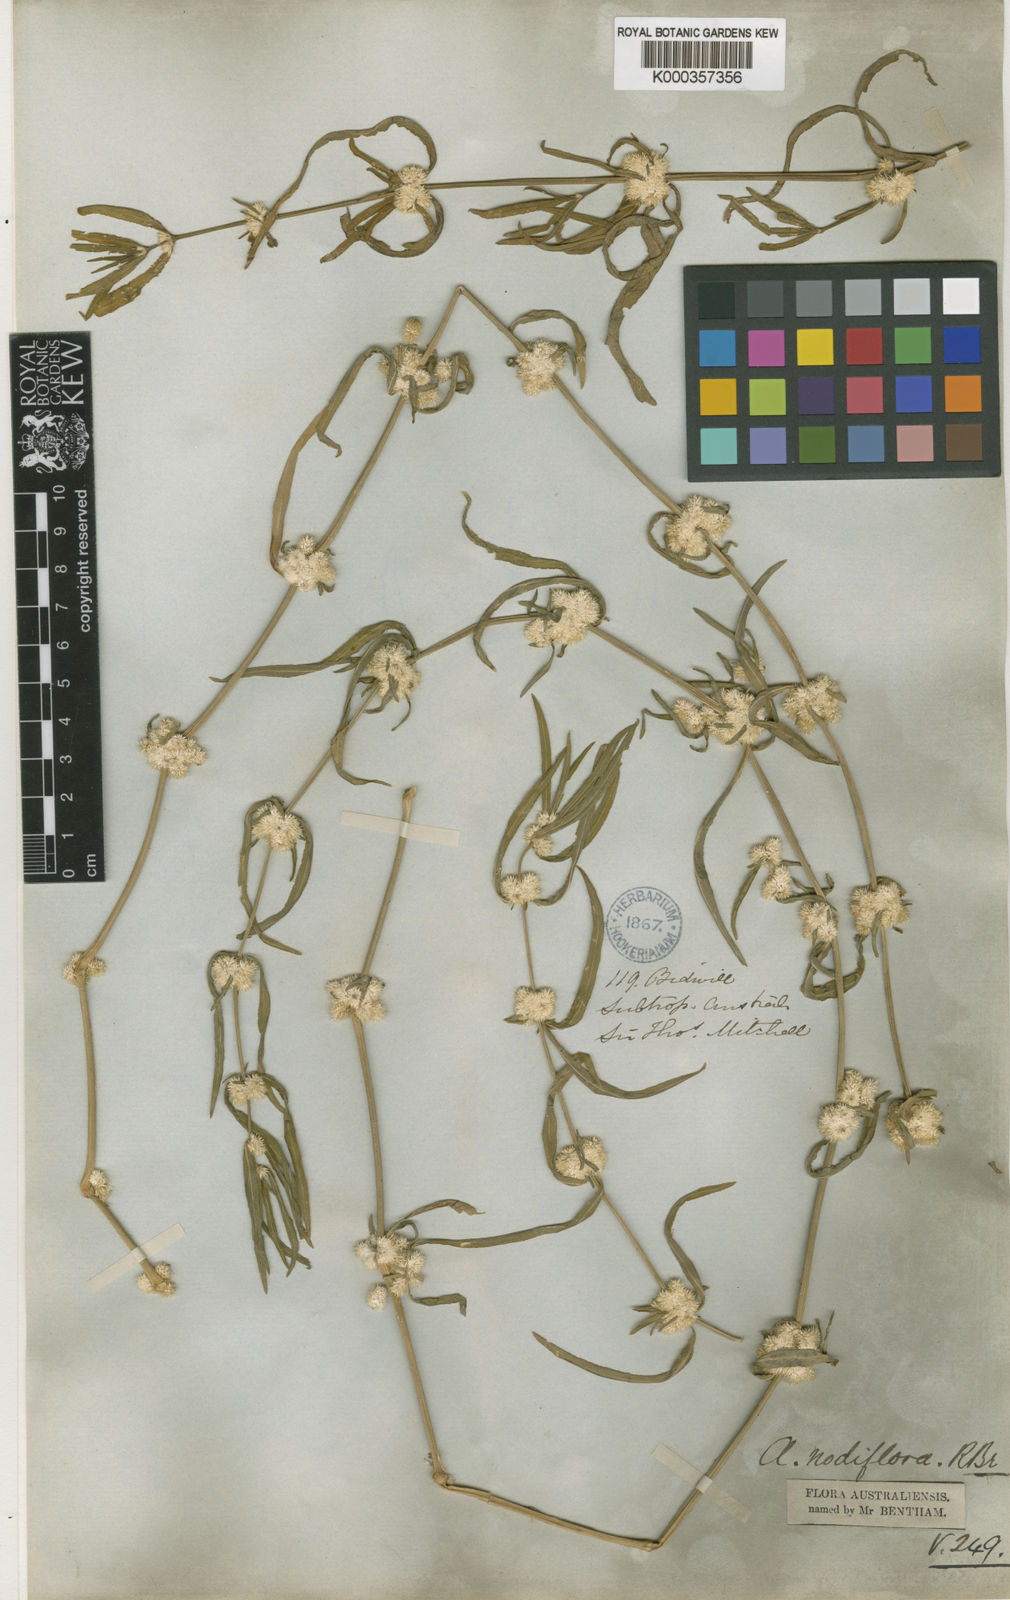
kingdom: Plantae
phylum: Tracheophyta
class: Magnoliopsida
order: Caryophyllales
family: Amaranthaceae
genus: Alternanthera
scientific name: Alternanthera sessilis
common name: Sessile joyweed
